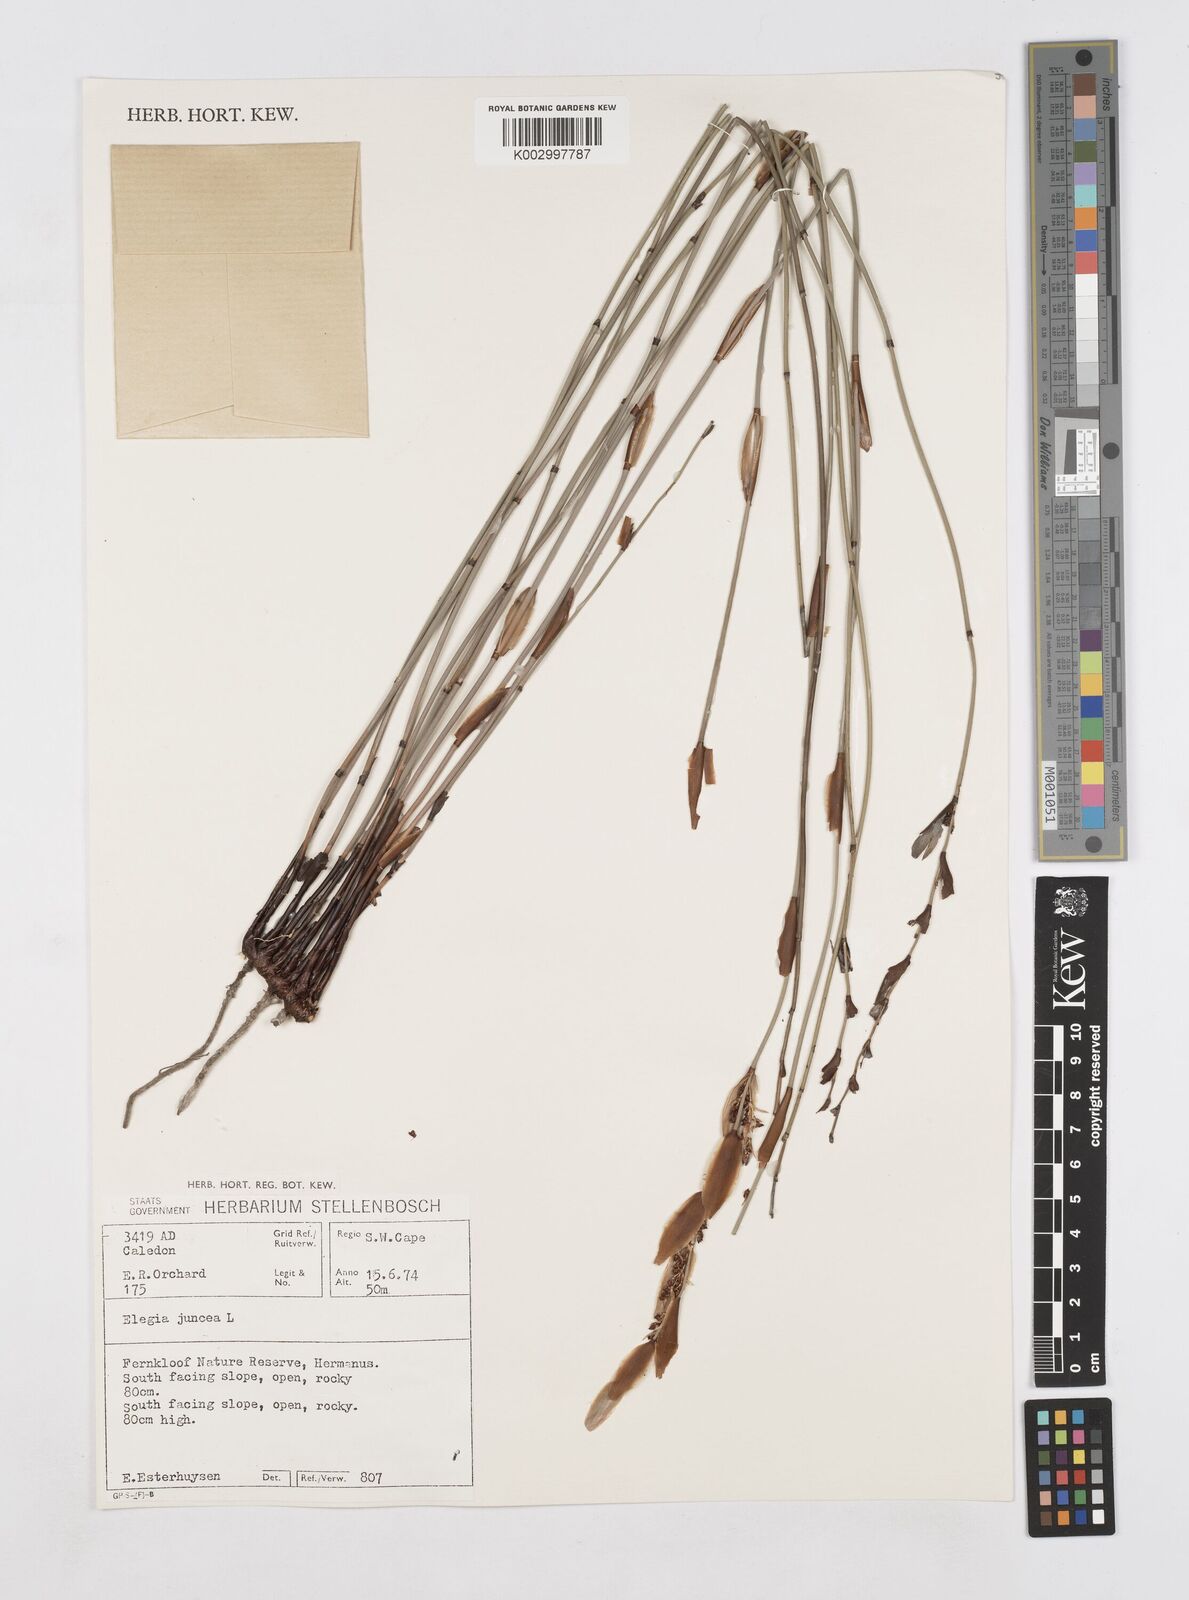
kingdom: Plantae
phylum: Tracheophyta
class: Liliopsida
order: Poales
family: Restionaceae
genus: Elegia
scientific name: Elegia juncea
